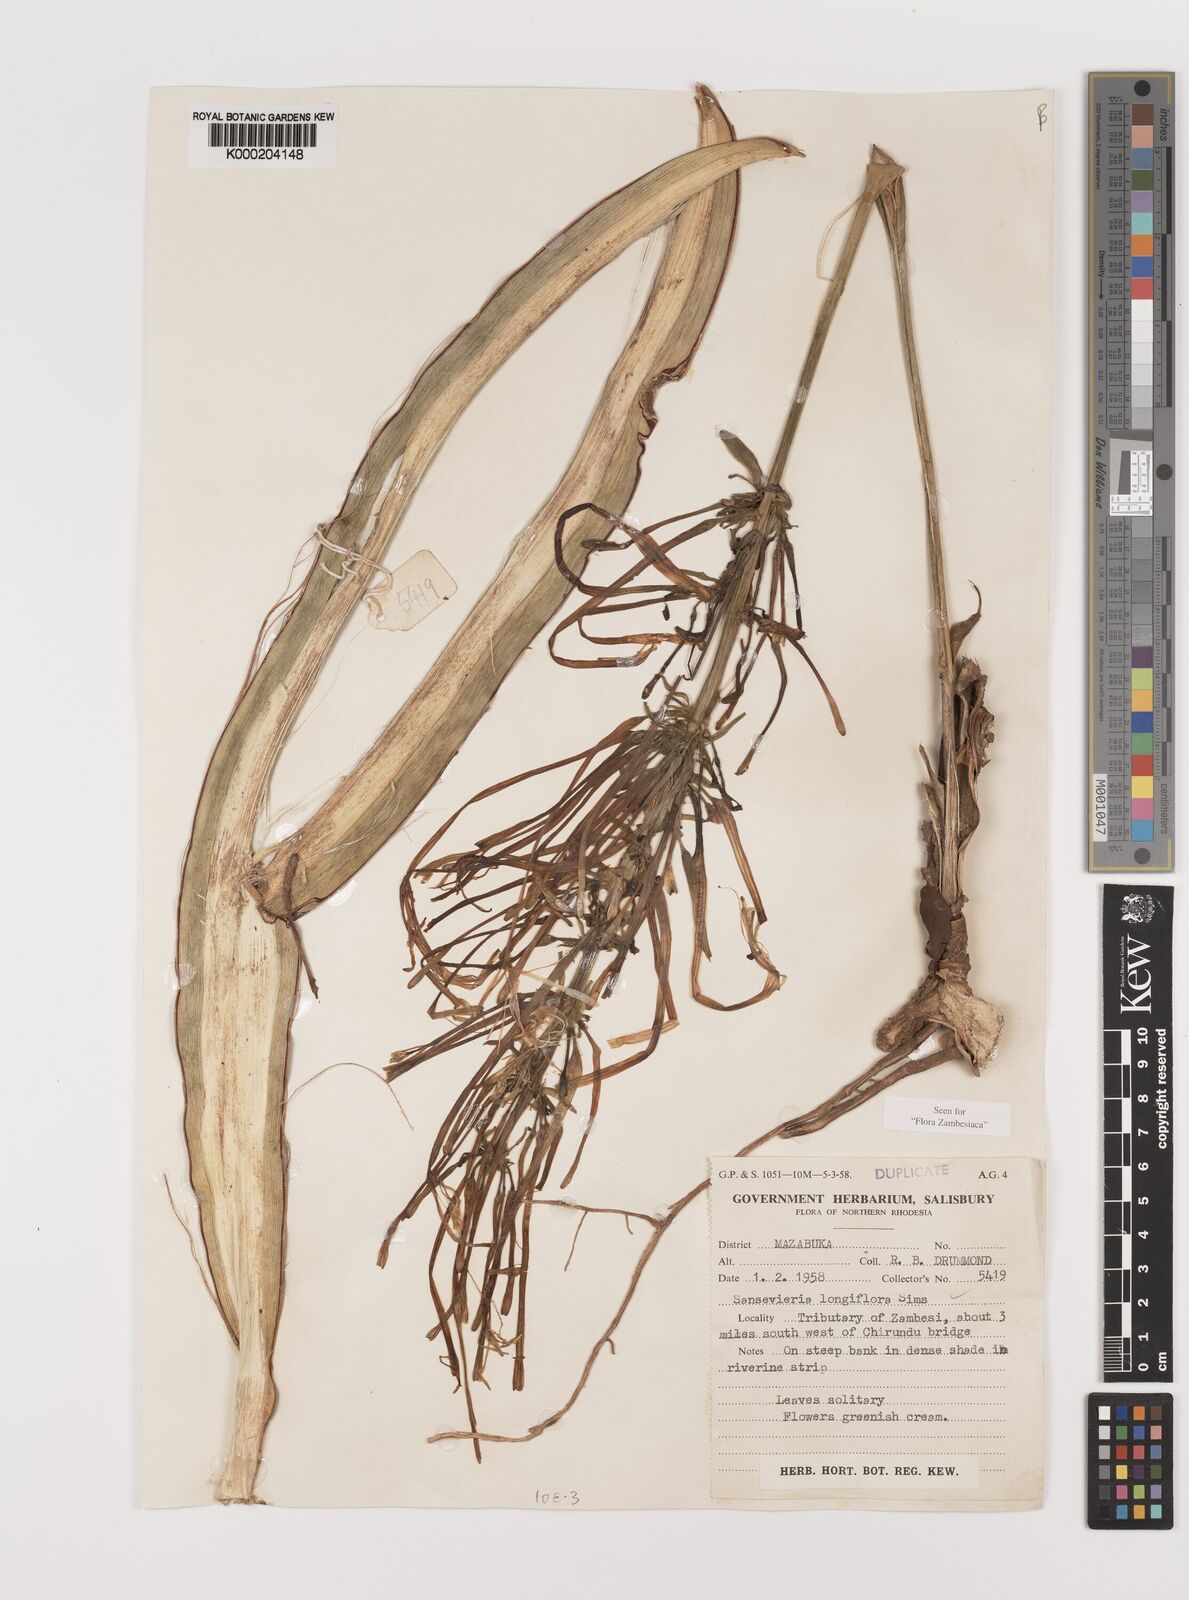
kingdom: Plantae
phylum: Tracheophyta
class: Liliopsida
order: Asparagales
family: Asparagaceae
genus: Dracaena
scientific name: Dracaena
